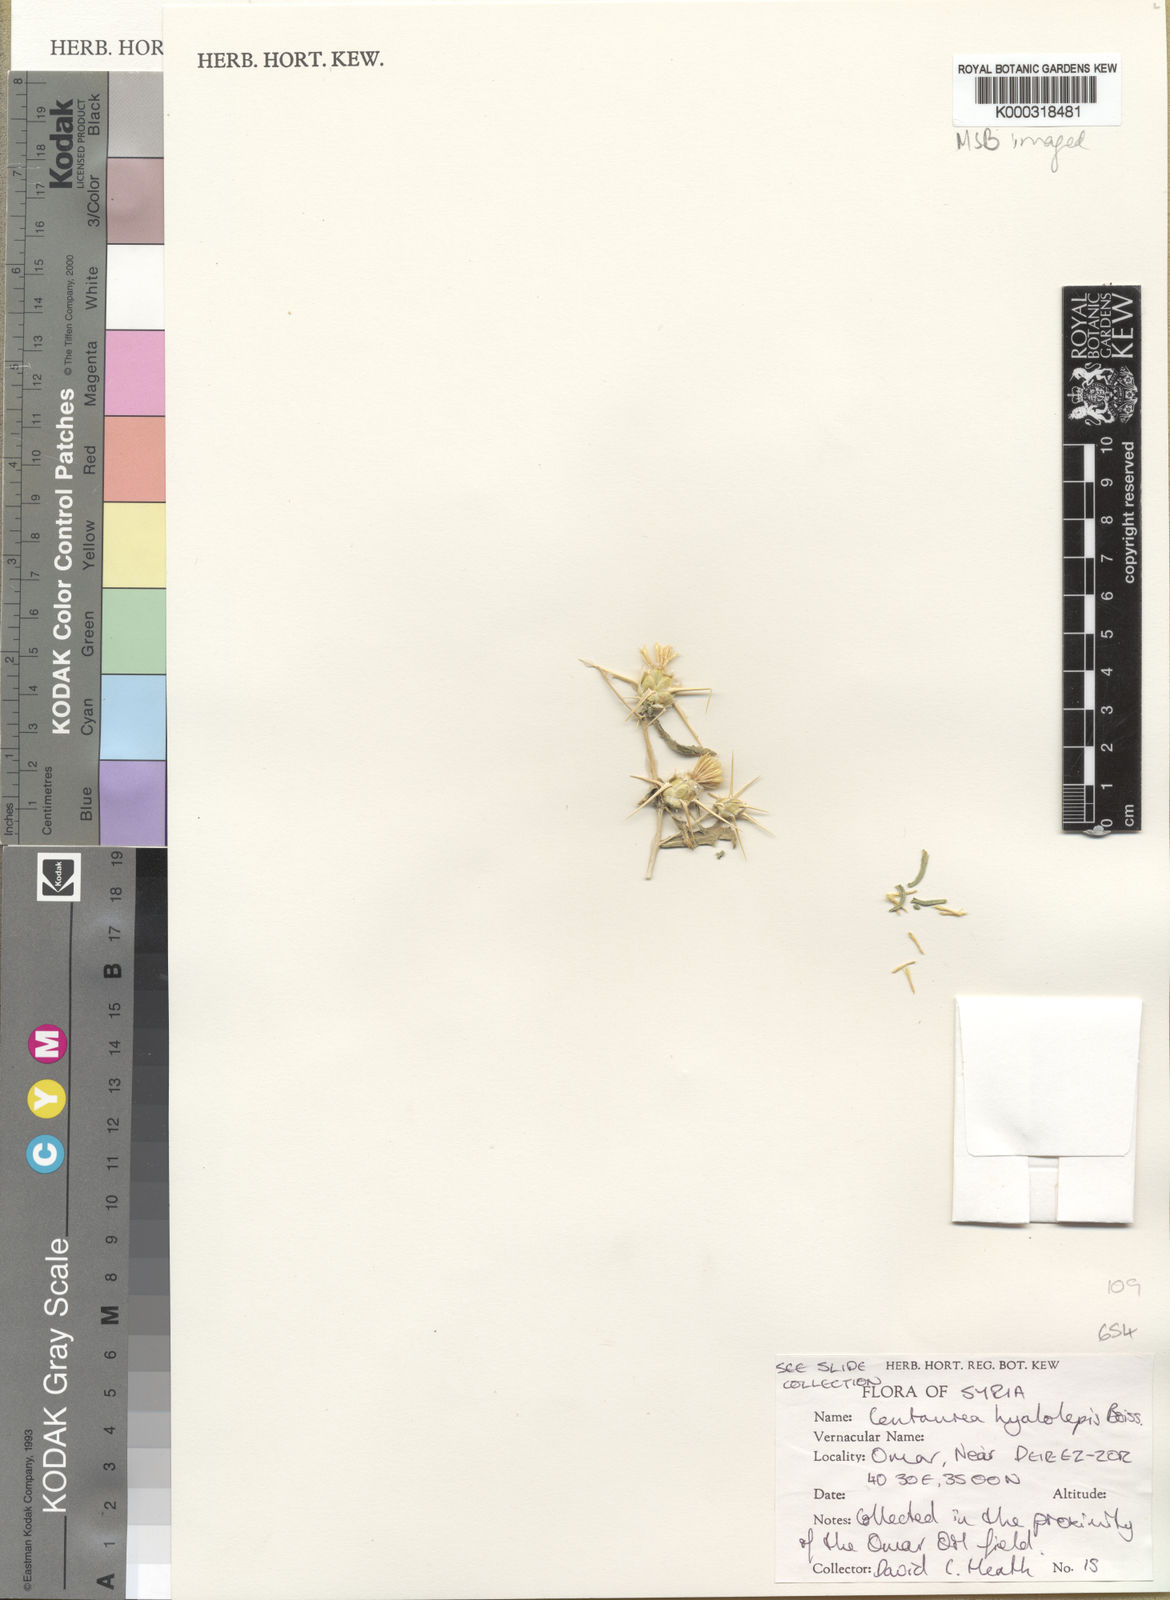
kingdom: Plantae
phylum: Tracheophyta
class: Magnoliopsida
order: Asterales
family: Asteraceae
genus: Centaurea
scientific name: Centaurea hyalolepis
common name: Eastern star-thistle
